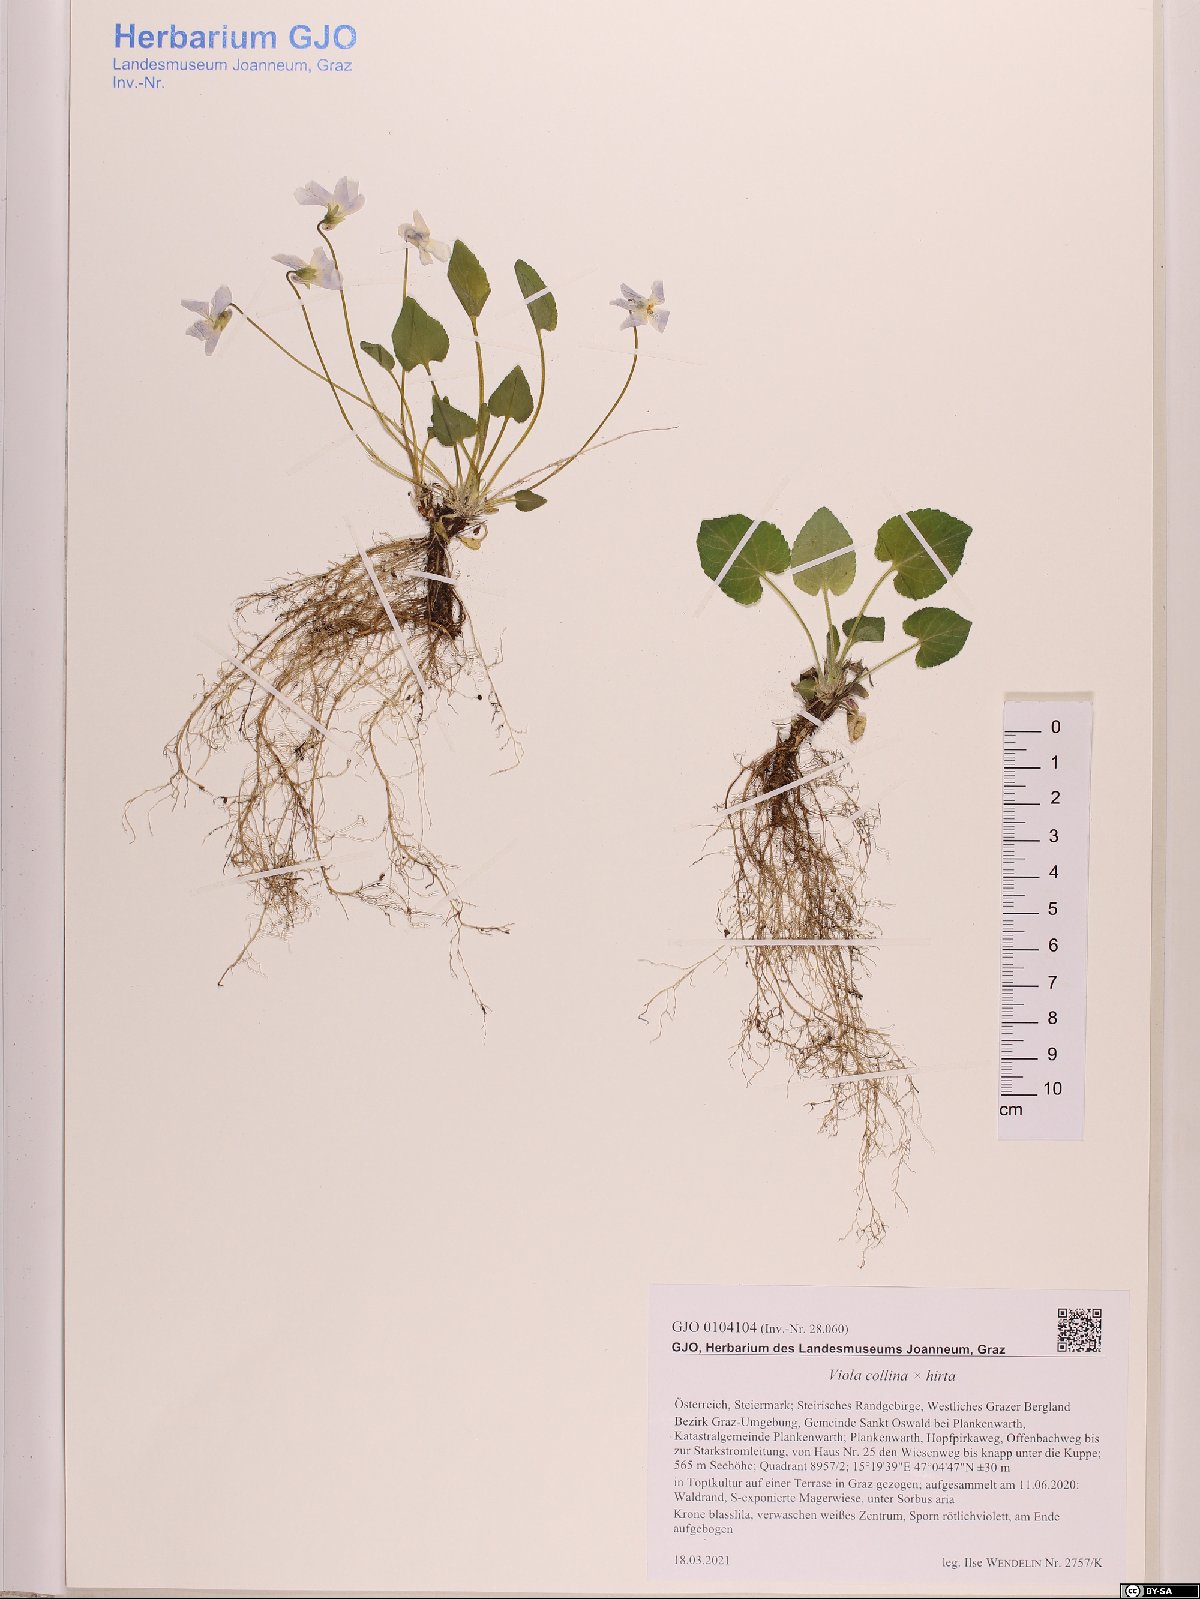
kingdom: Plantae
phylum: Tracheophyta
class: Magnoliopsida
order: Malpighiales
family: Violaceae
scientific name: Violaceae
